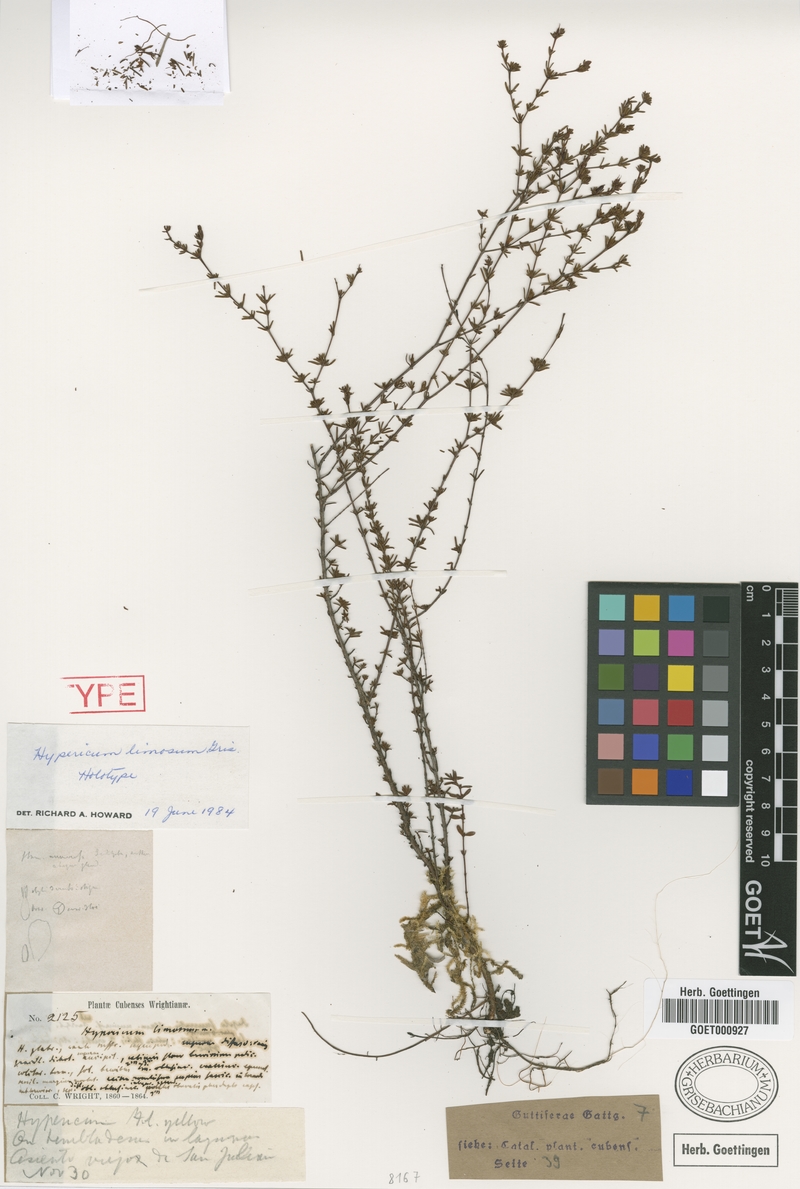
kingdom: Plantae
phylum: Tracheophyta
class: Magnoliopsida
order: Malpighiales
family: Hypericaceae
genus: Hypericum
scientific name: Hypericum limosum
